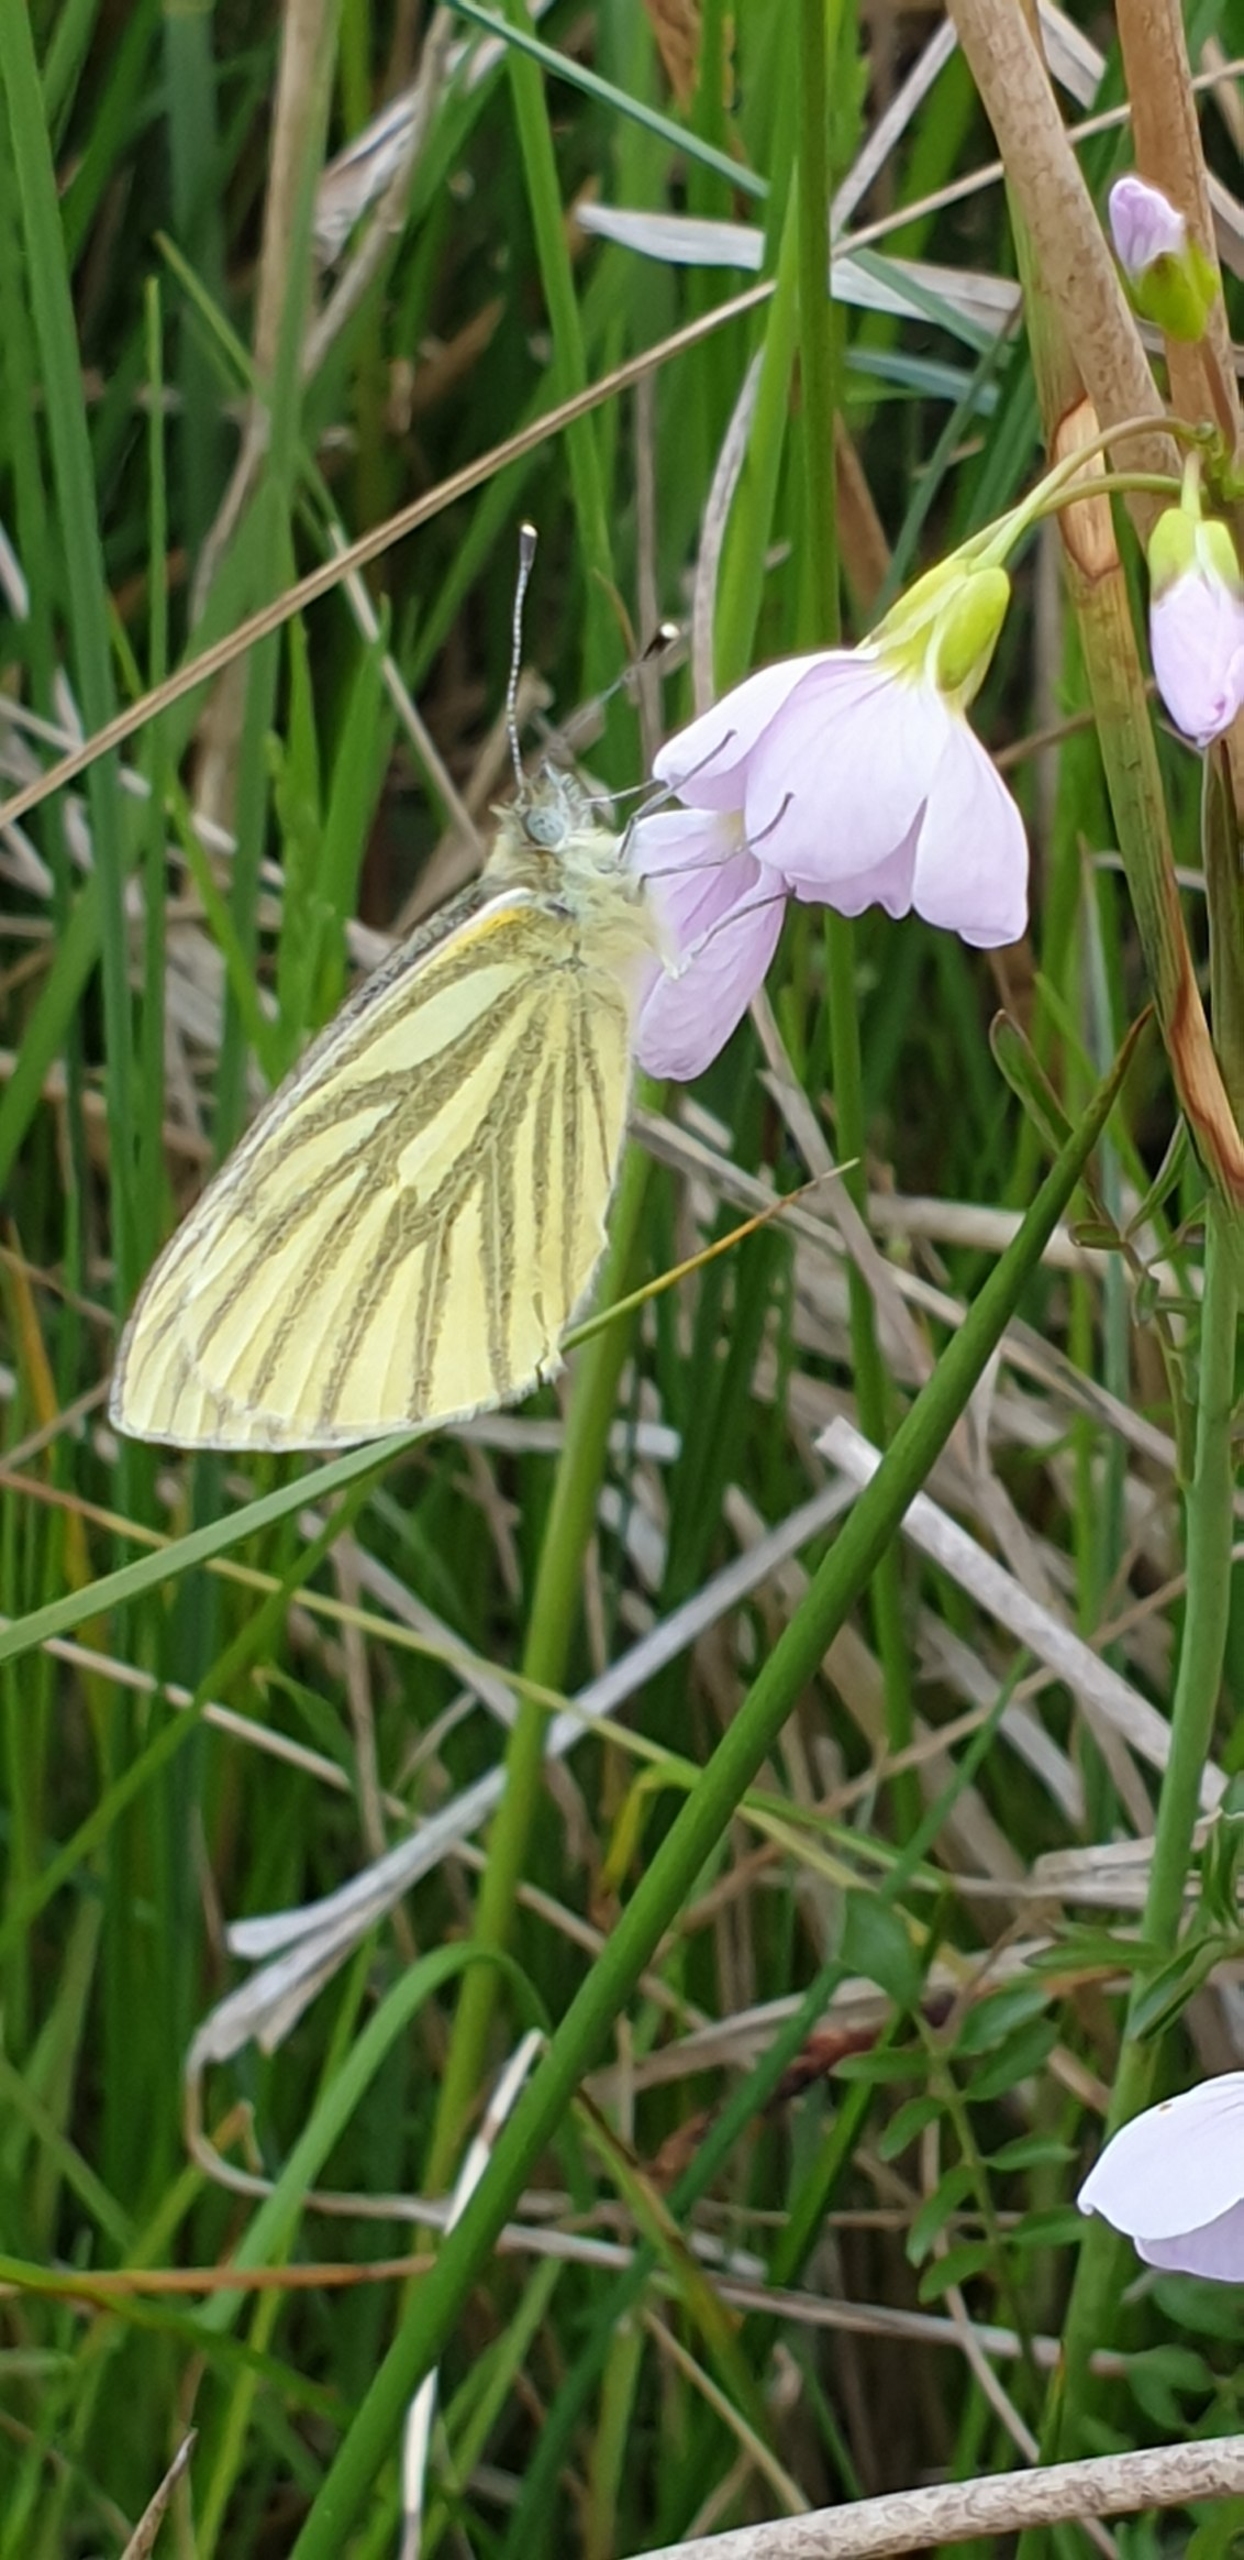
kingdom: Animalia
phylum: Arthropoda
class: Insecta
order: Lepidoptera
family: Pieridae
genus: Pieris
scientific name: Pieris napi
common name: Grønåret kålsommerfugl
